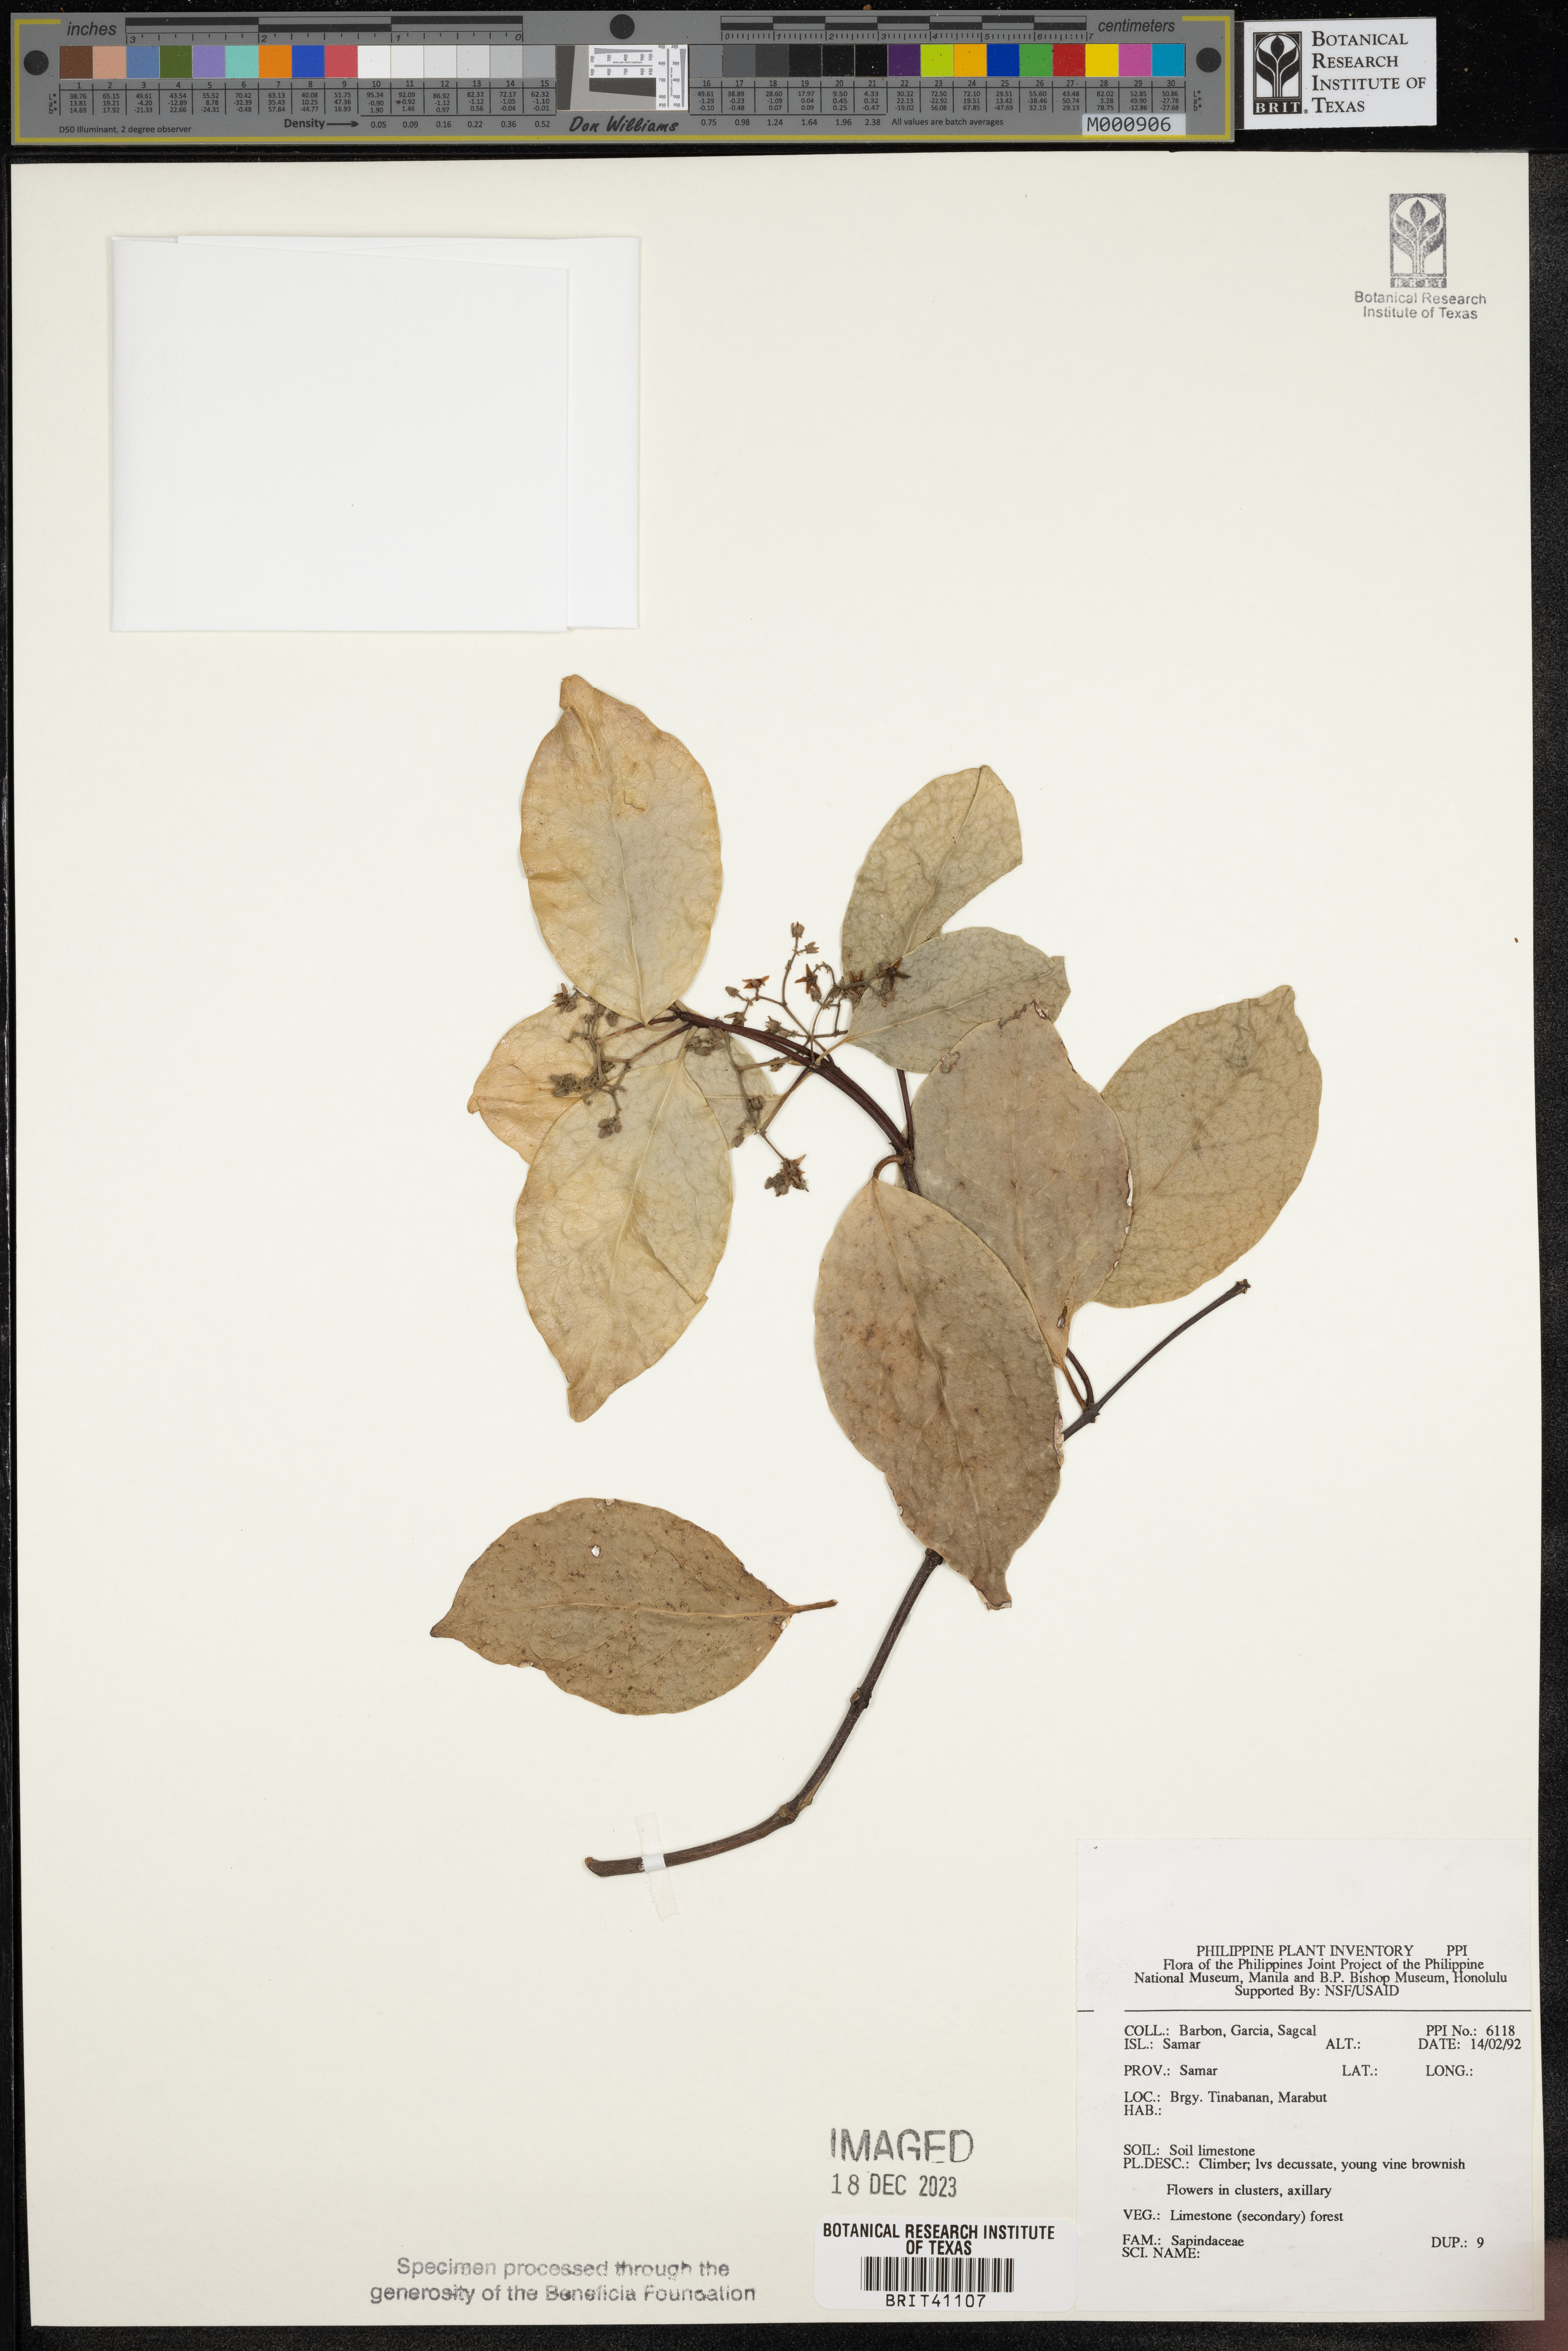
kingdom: Plantae
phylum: Tracheophyta
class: Magnoliopsida
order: Sapindales
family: Sapindaceae
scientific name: Sapindaceae
